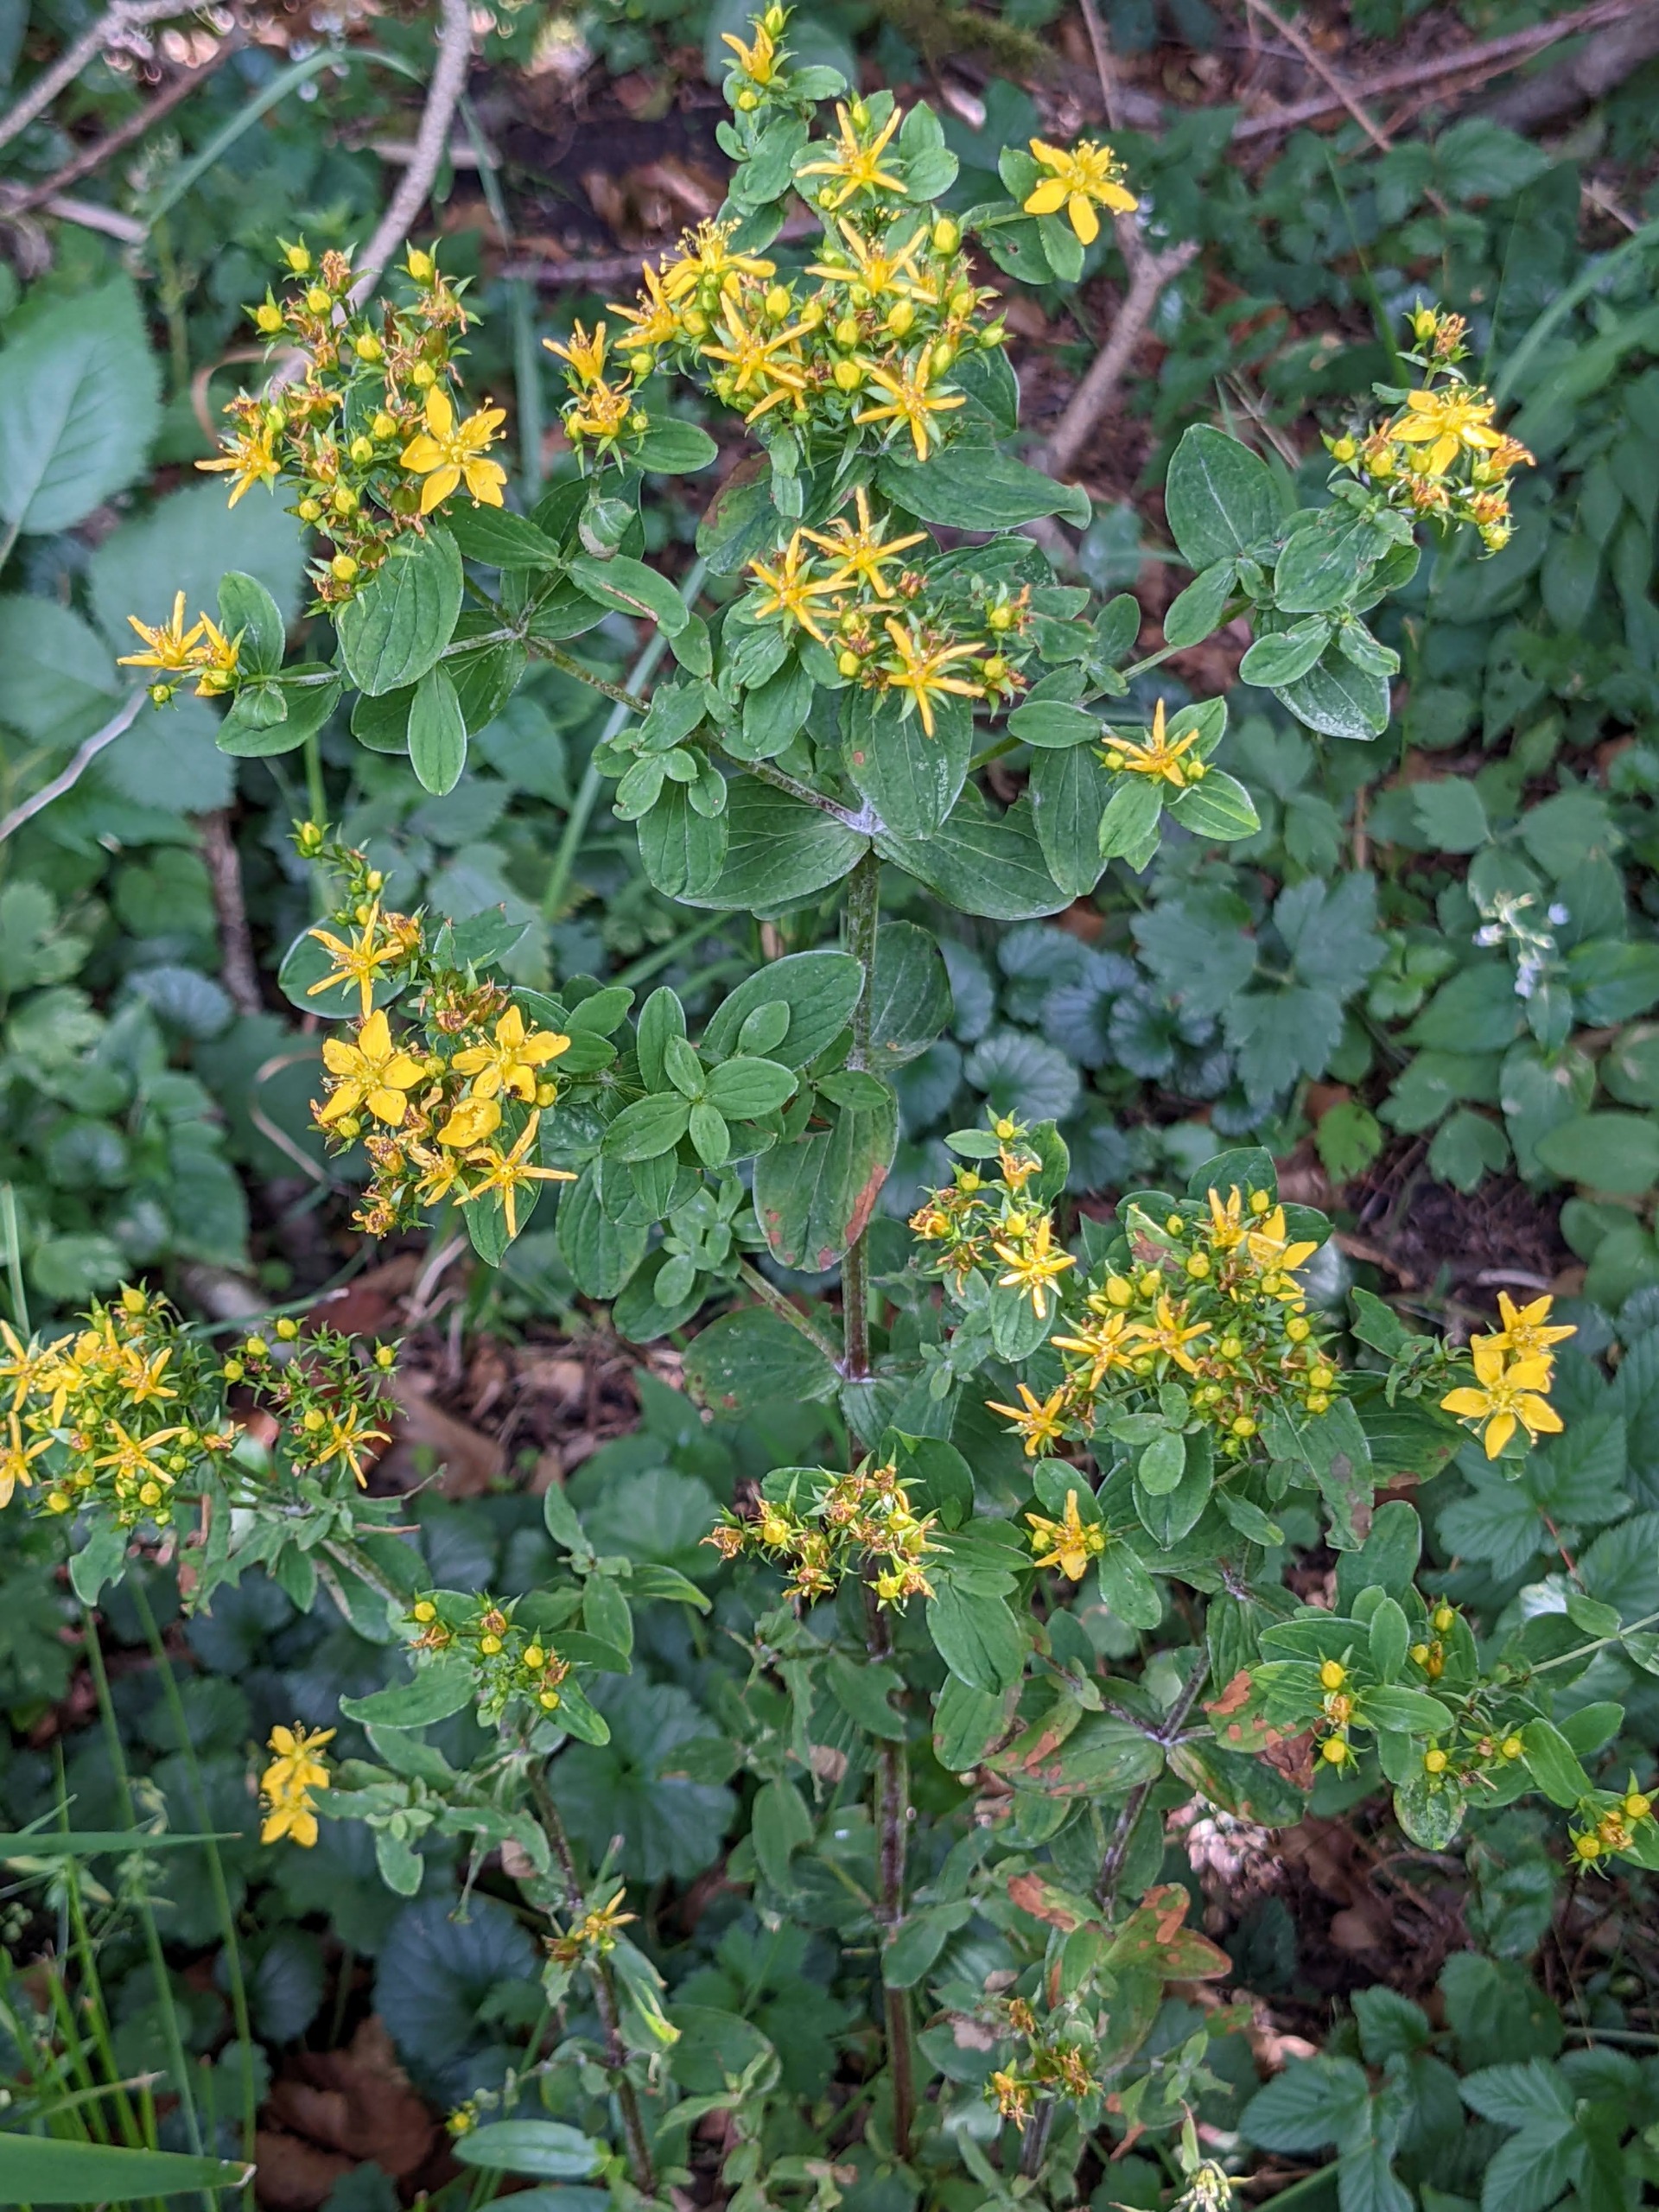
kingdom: Plantae
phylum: Tracheophyta
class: Magnoliopsida
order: Malpighiales
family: Hypericaceae
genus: Hypericum
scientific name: Hypericum tetrapterum
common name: Vinget perikon
